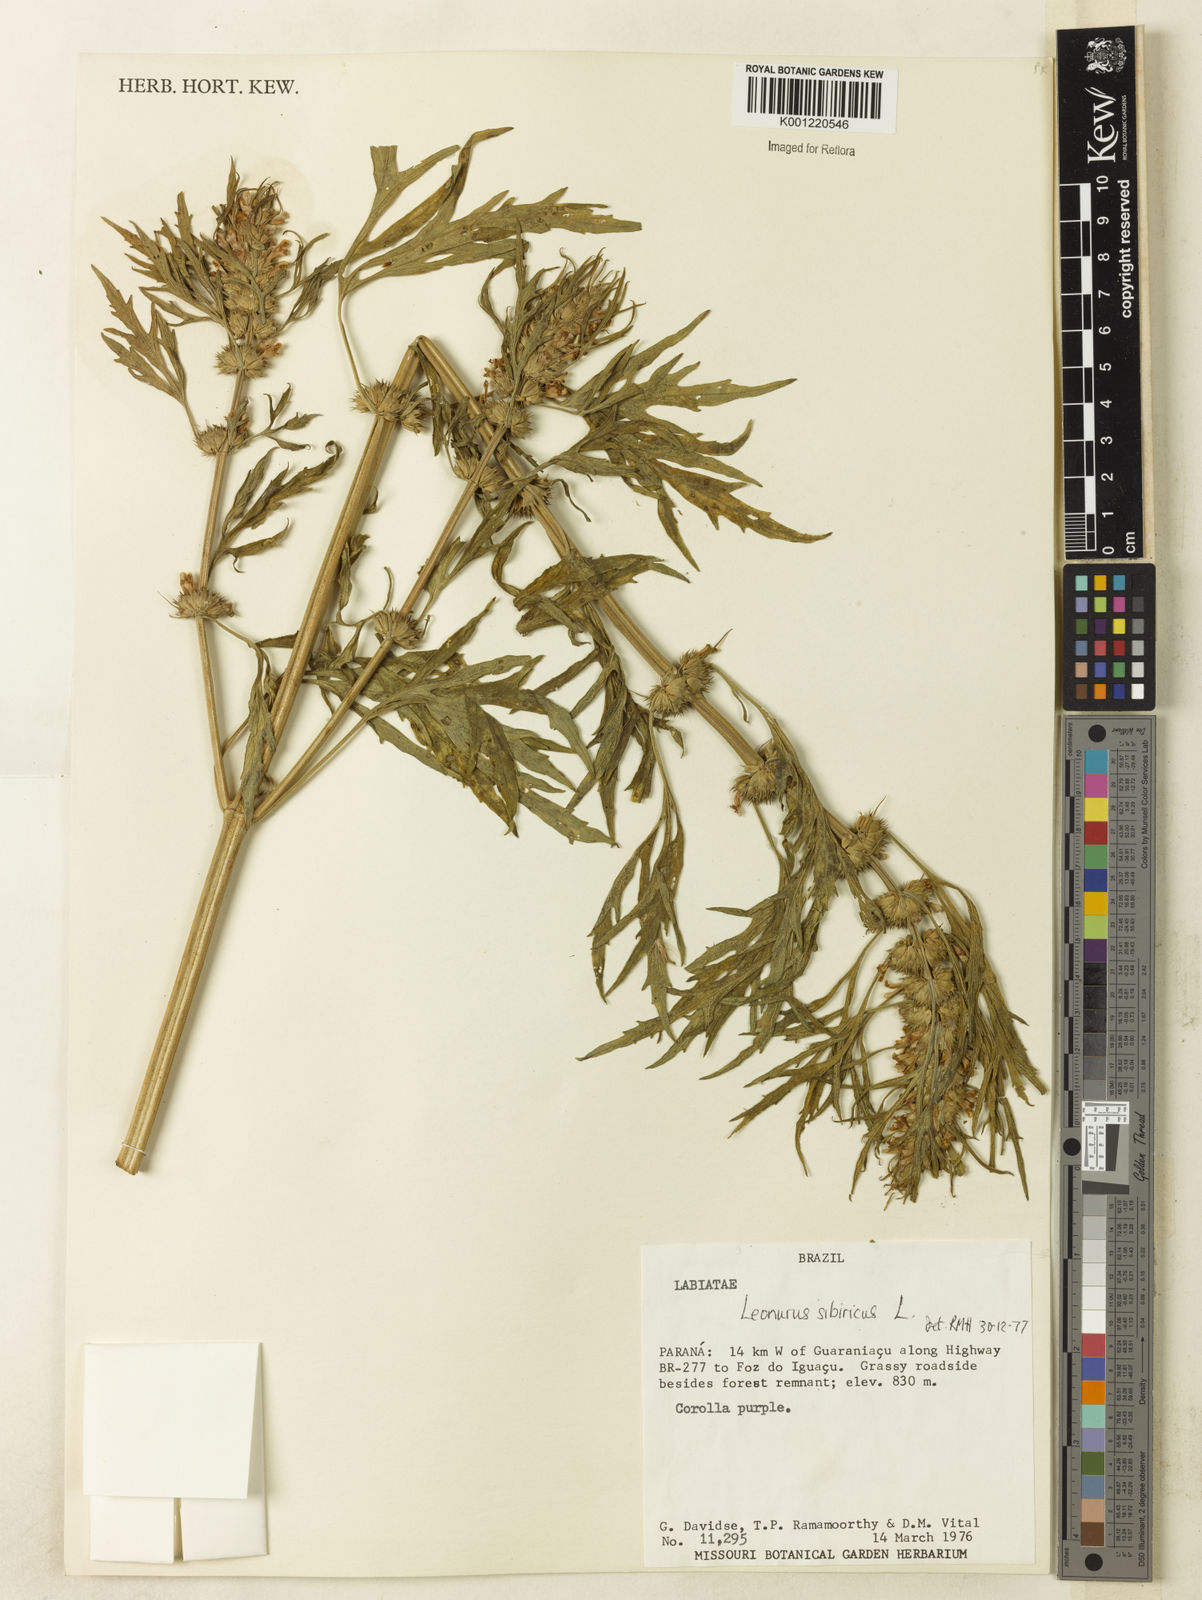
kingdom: Plantae
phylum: Tracheophyta
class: Magnoliopsida
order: Lamiales
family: Lamiaceae
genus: Leonurus
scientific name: Leonurus japonicus
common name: Honeyweed
